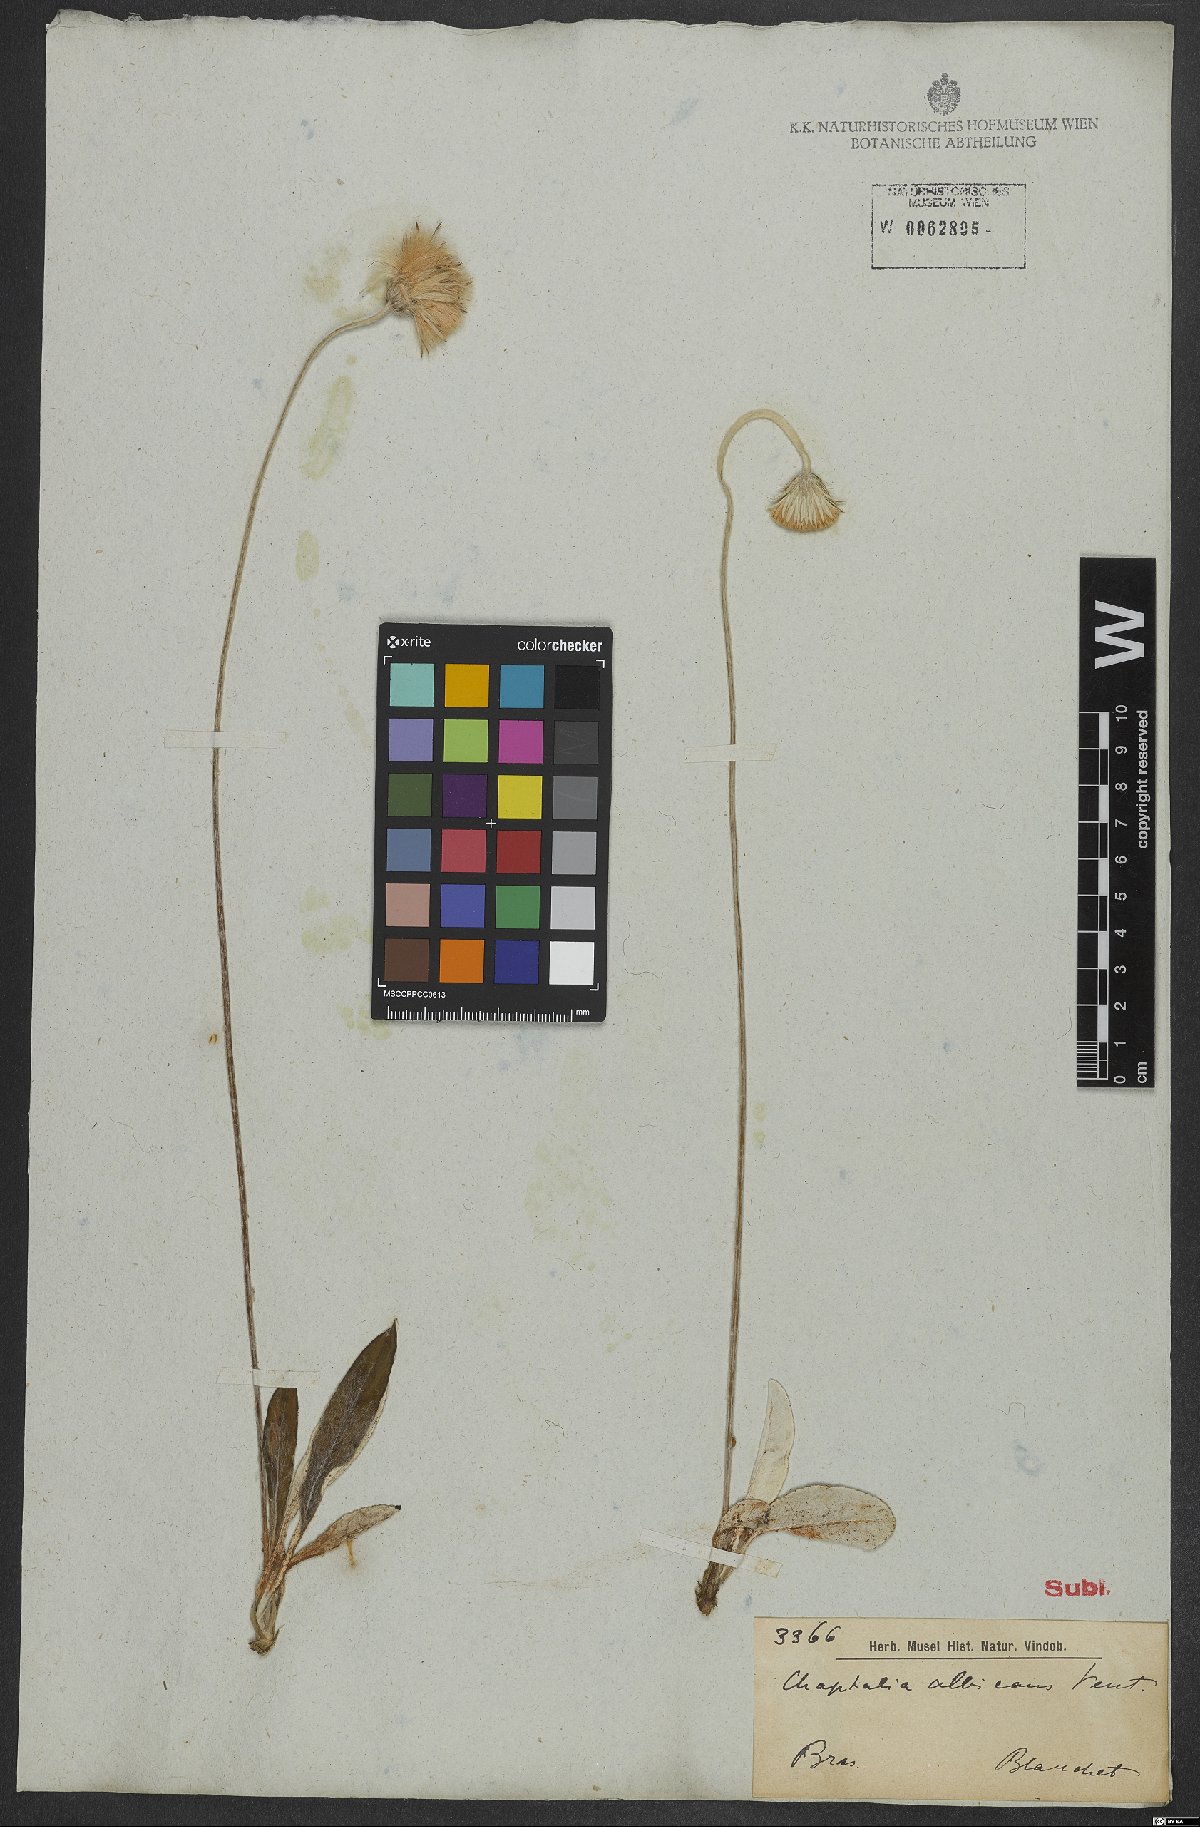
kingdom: Plantae
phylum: Tracheophyta
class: Magnoliopsida
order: Asterales
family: Asteraceae
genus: Chaptalia
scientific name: Chaptalia albicans
